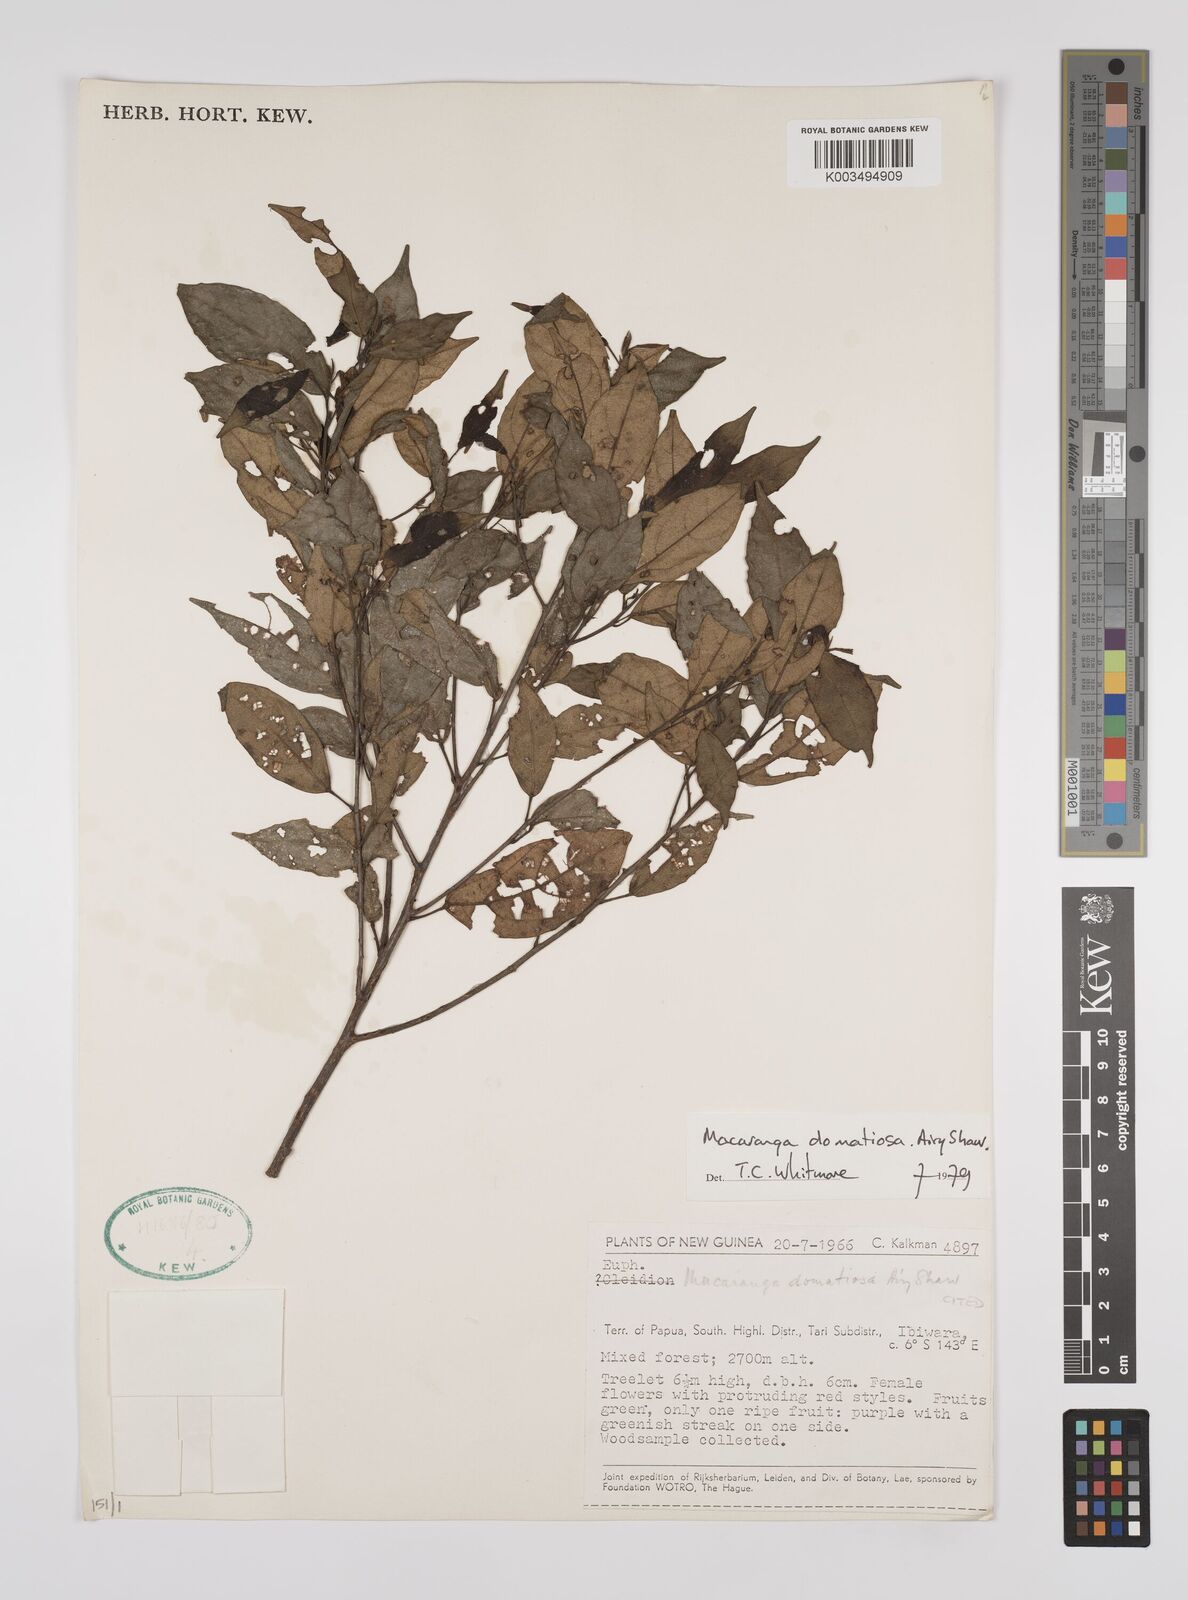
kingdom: Plantae
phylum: Tracheophyta
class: Magnoliopsida
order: Malpighiales
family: Euphorbiaceae
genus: Macaranga
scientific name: Macaranga domatiosa
